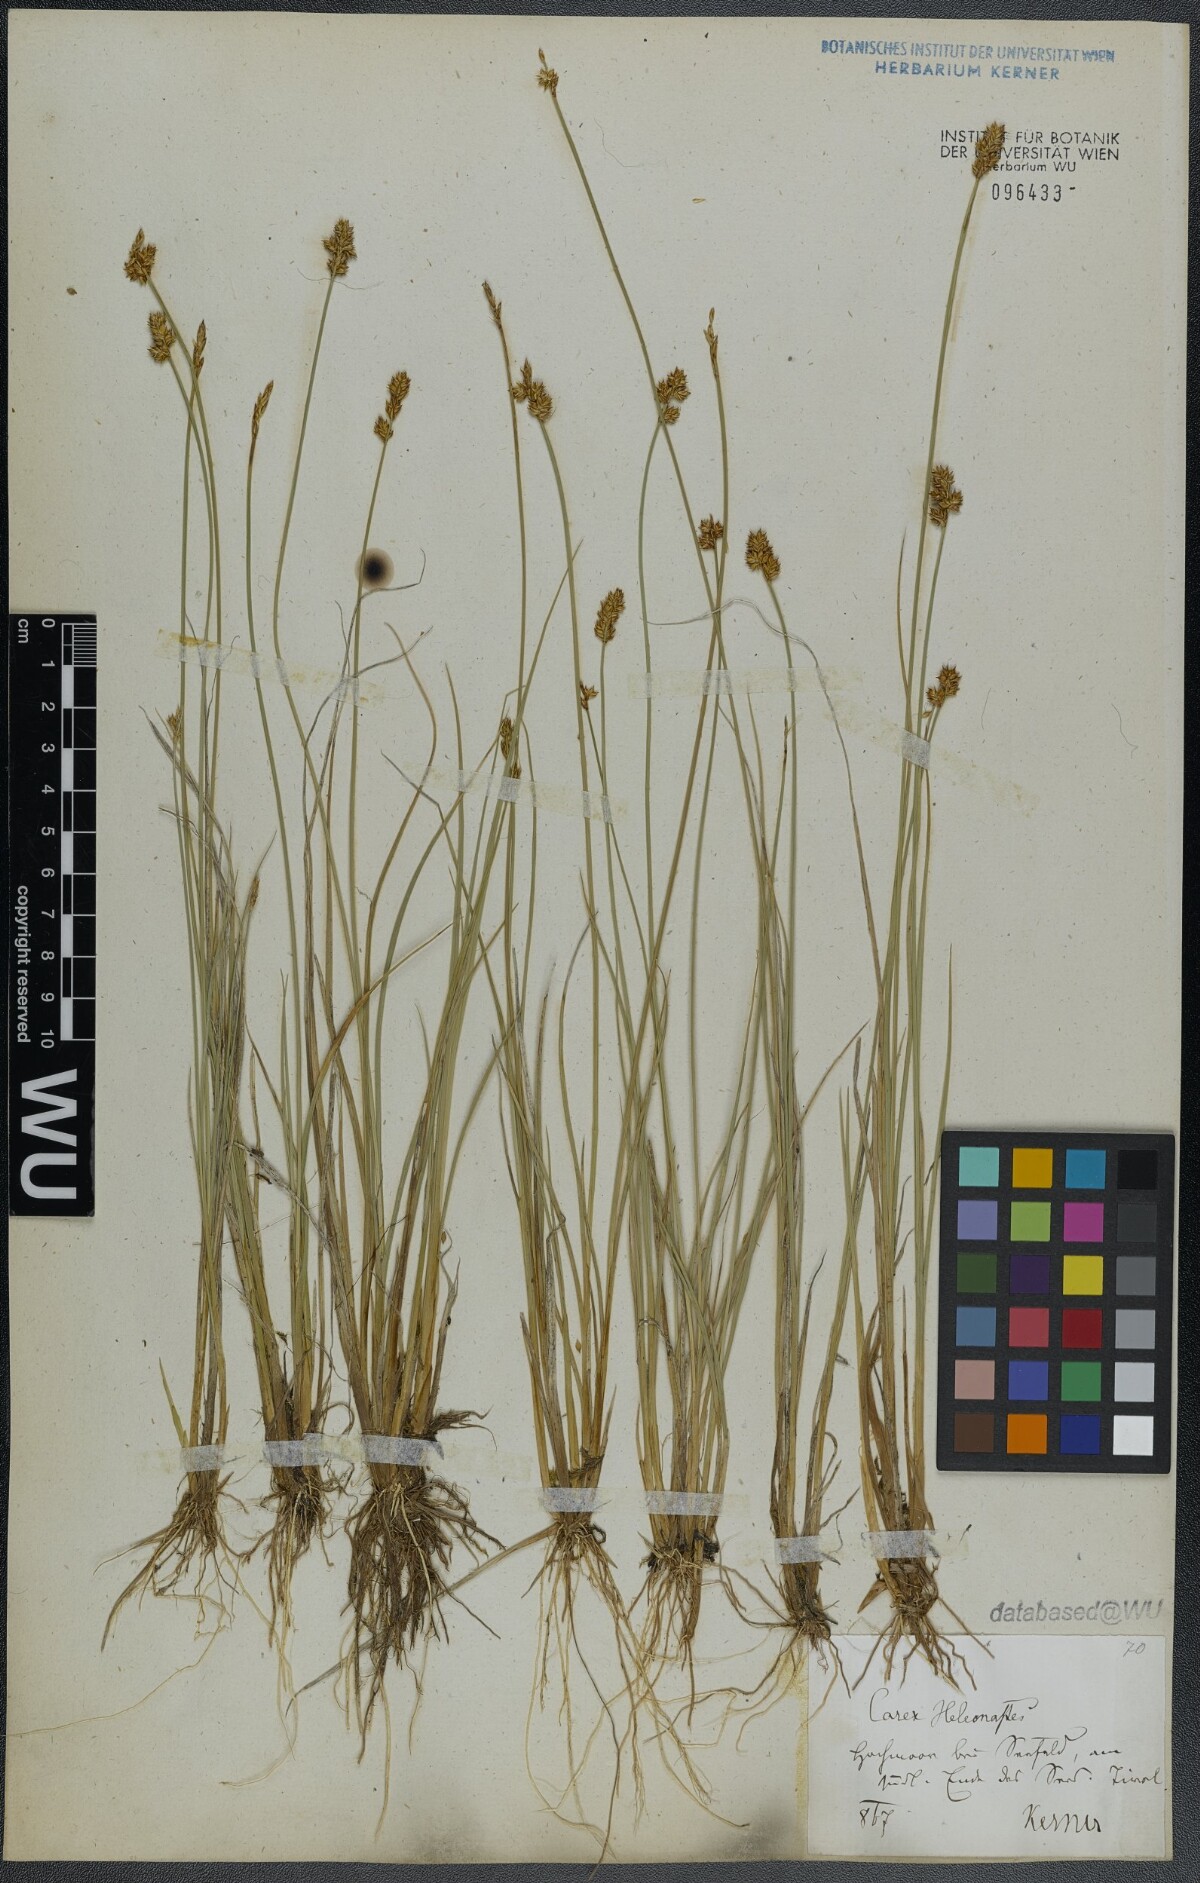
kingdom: Plantae
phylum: Tracheophyta
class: Liliopsida
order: Poales
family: Cyperaceae
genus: Carex
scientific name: Carex heleonastes
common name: Hudson bay sedge
